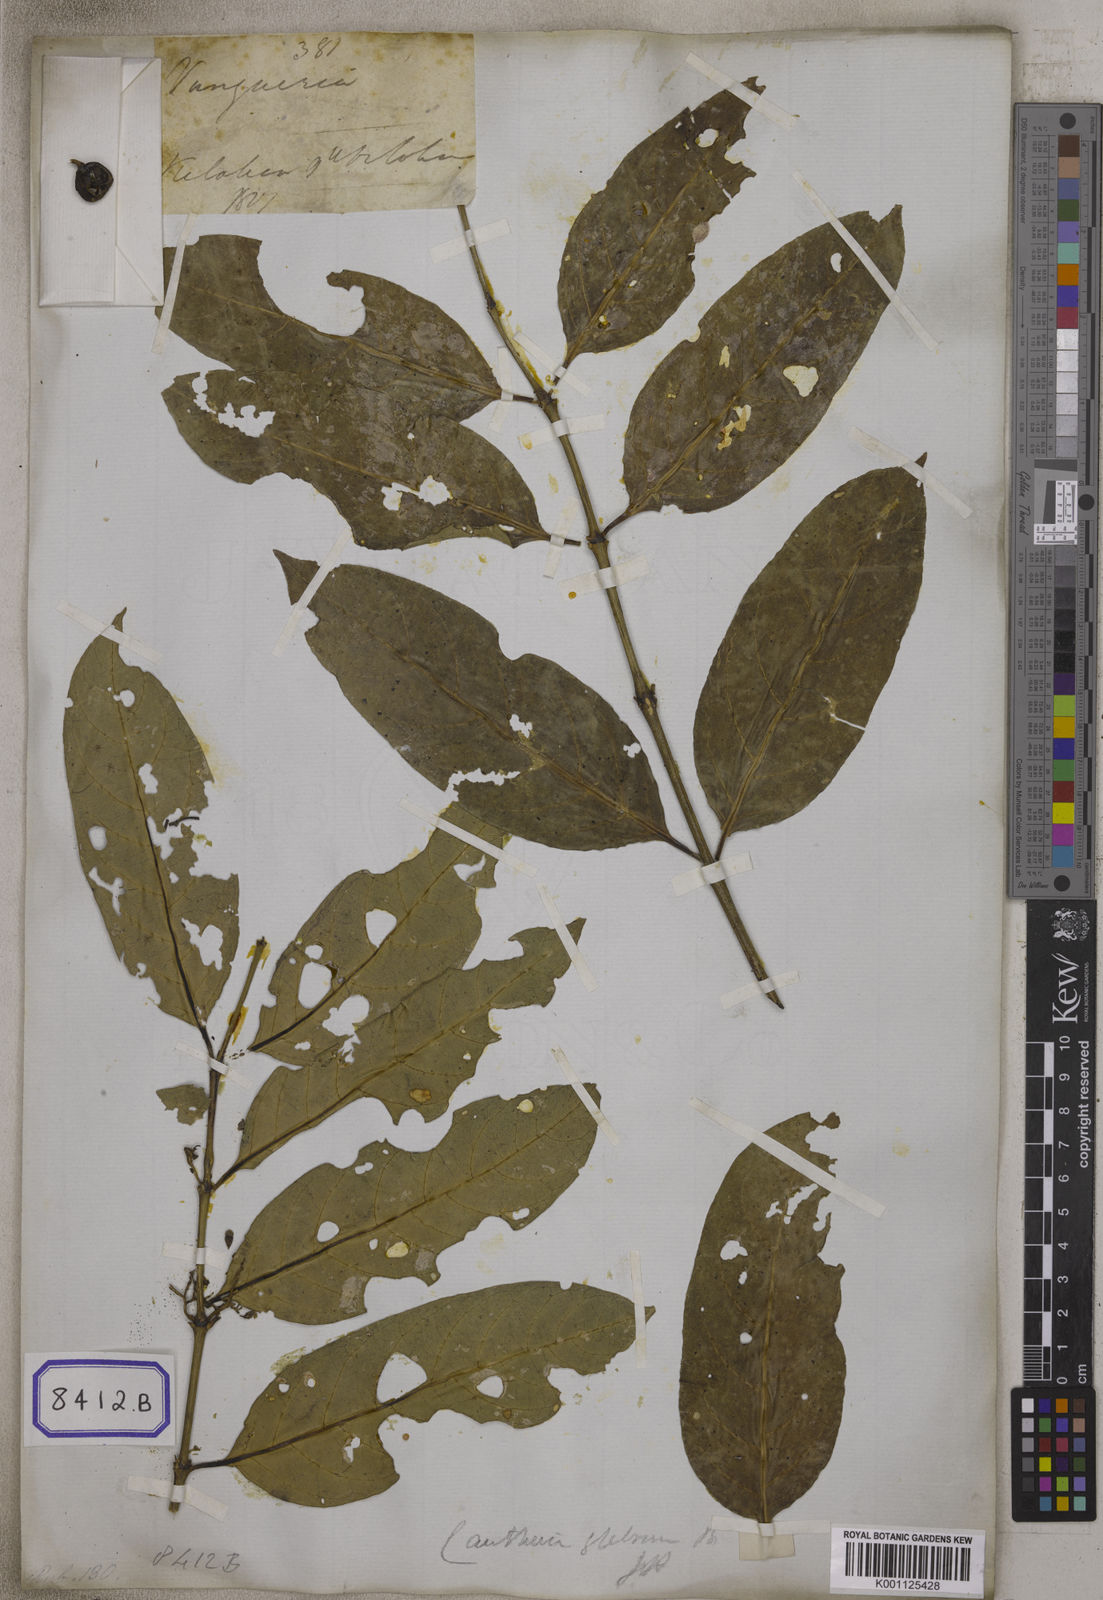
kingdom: Plantae
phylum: Tracheophyta
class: Magnoliopsida
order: Gentianales
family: Rubiaceae
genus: Vangueria
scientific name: Vangueria
